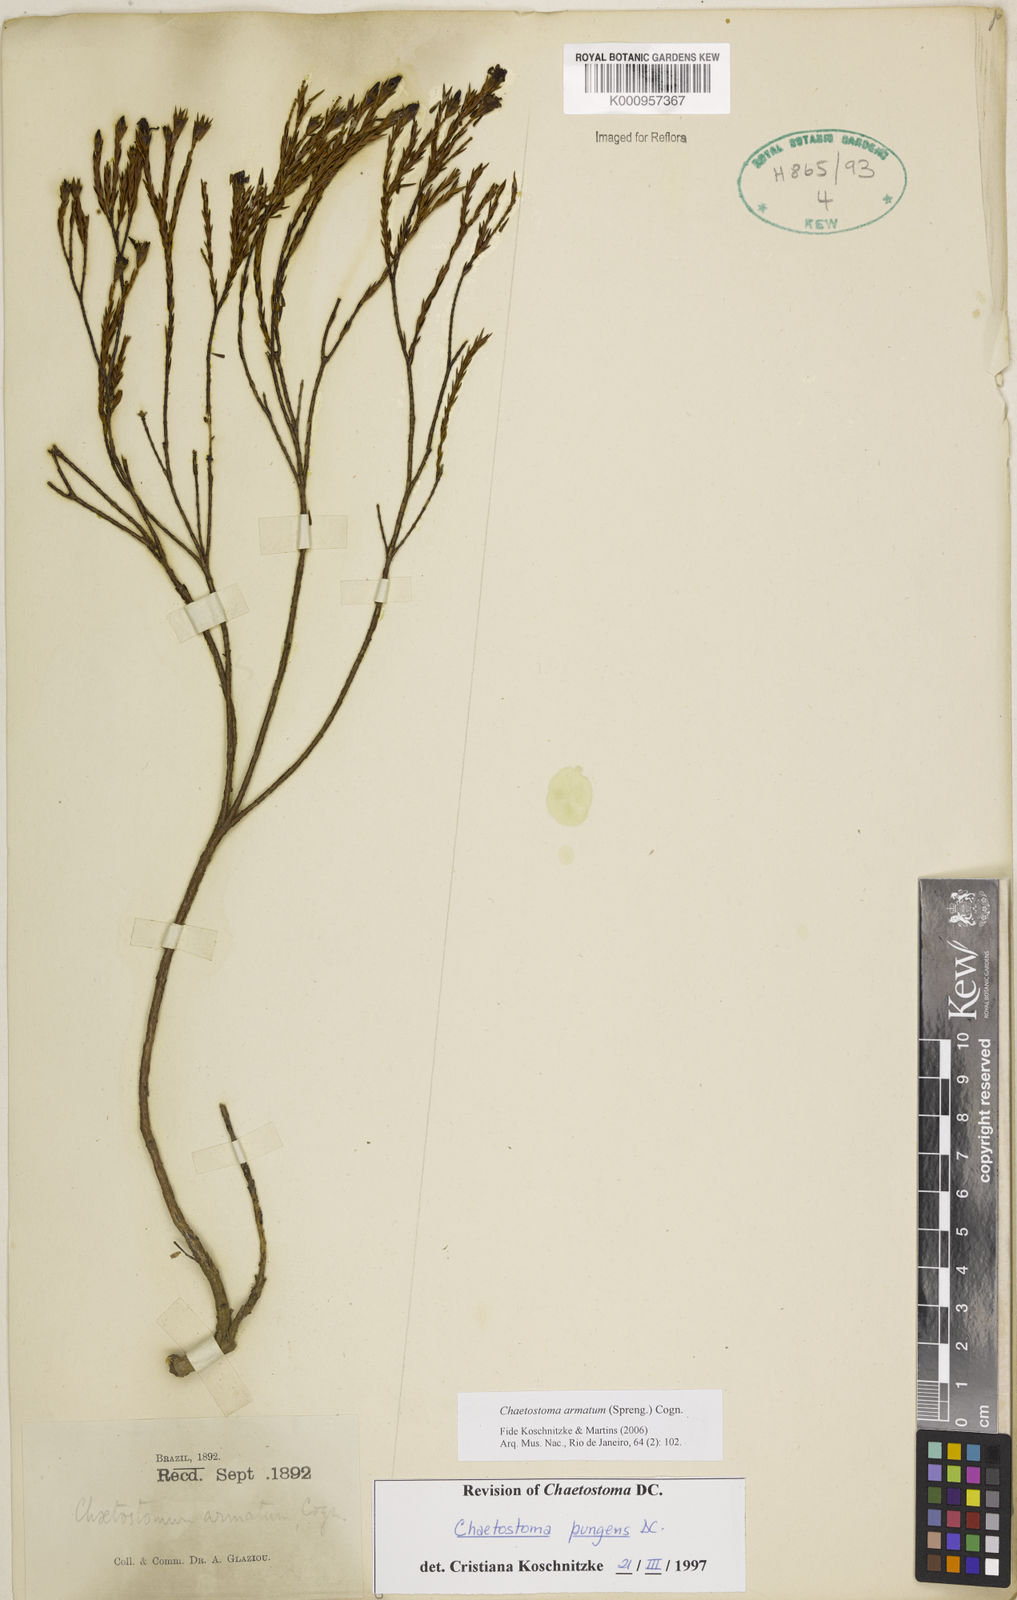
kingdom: Plantae
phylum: Tracheophyta
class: Magnoliopsida
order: Myrtales
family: Melastomataceae
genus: Microlicia
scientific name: Microlicia armata
